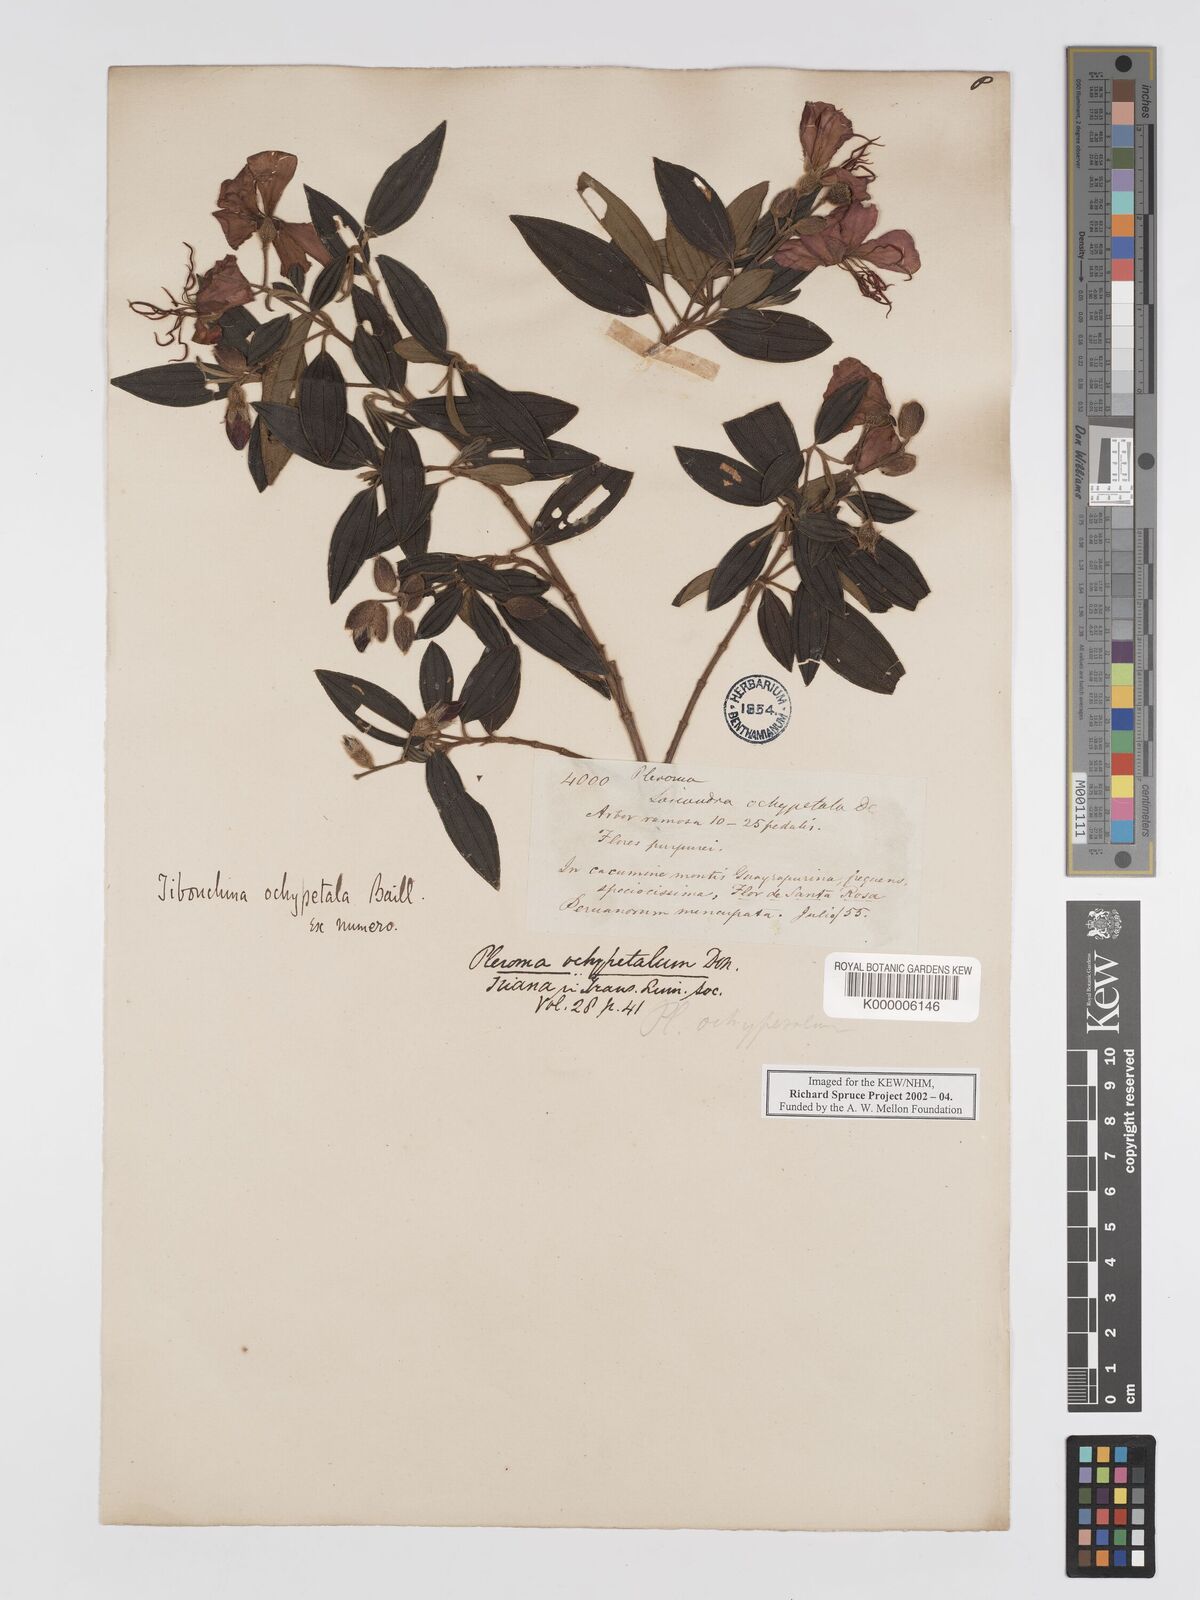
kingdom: Plantae
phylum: Tracheophyta
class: Magnoliopsida
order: Myrtales
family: Melastomataceae
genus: Pleroma
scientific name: Pleroma ochypetalum
